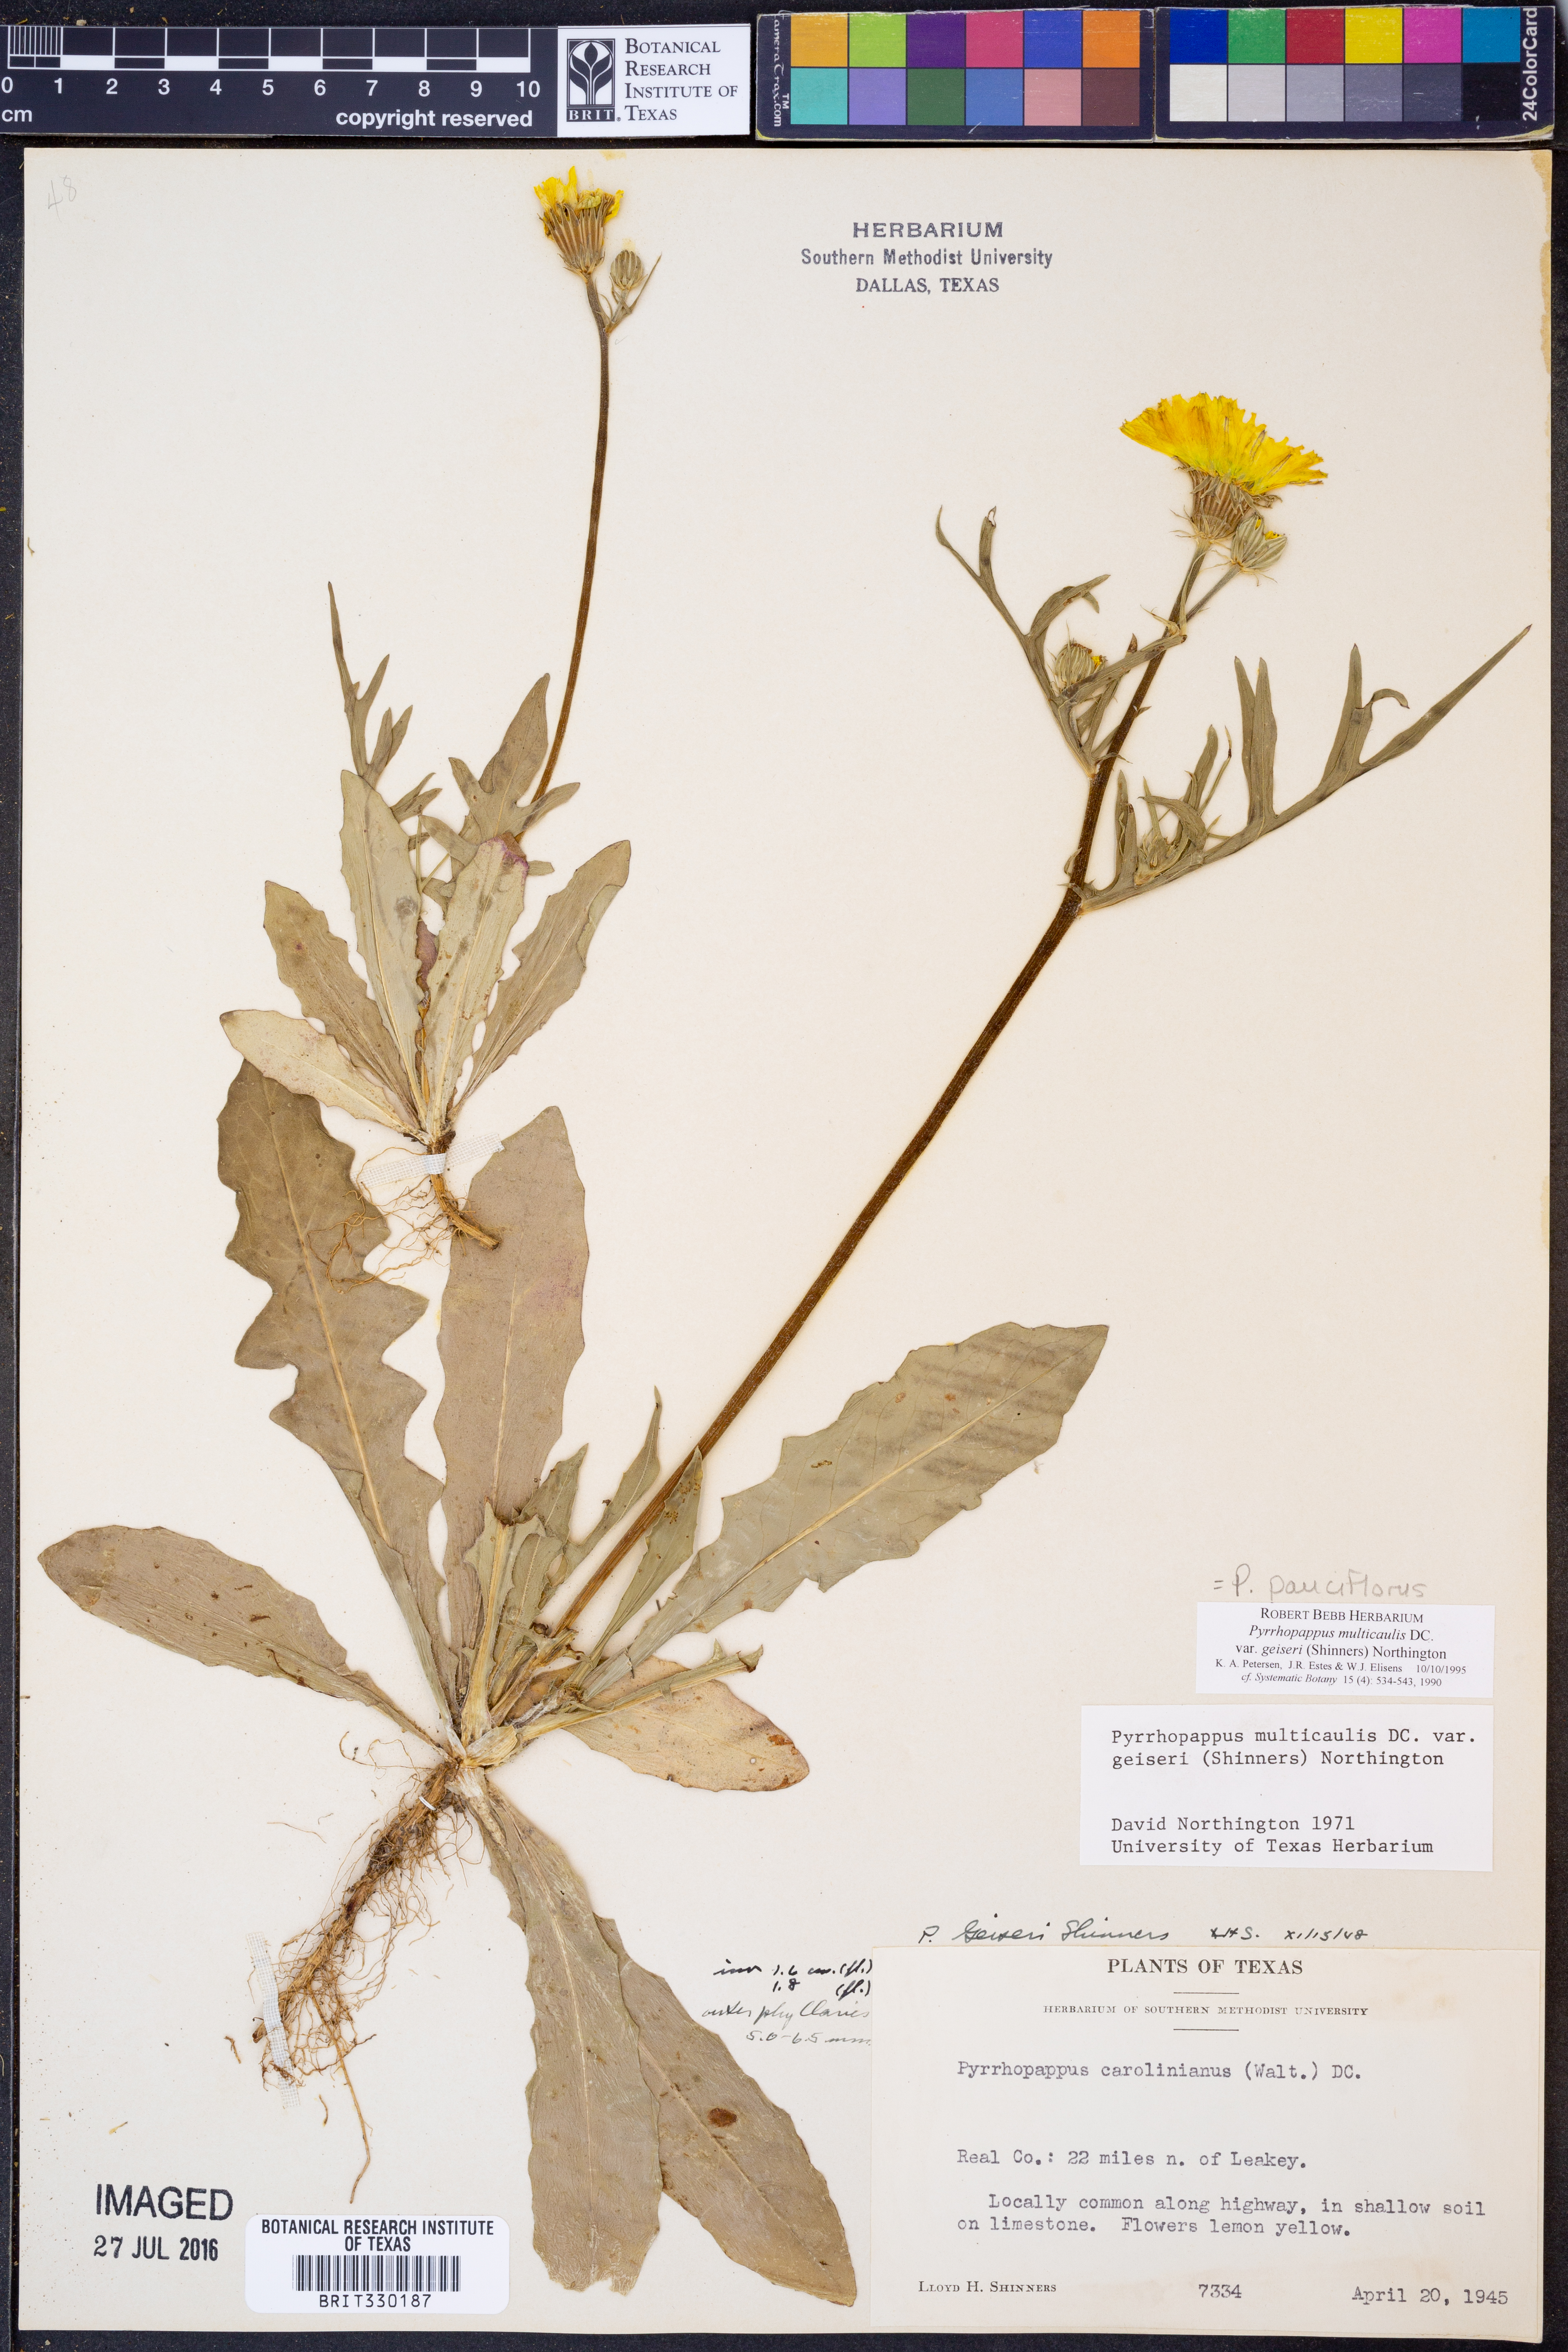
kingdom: Plantae
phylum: Tracheophyta
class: Magnoliopsida
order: Asterales
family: Asteraceae
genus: Pyrrhopappus
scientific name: Pyrrhopappus pauciflorus
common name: Texas false dandelion
